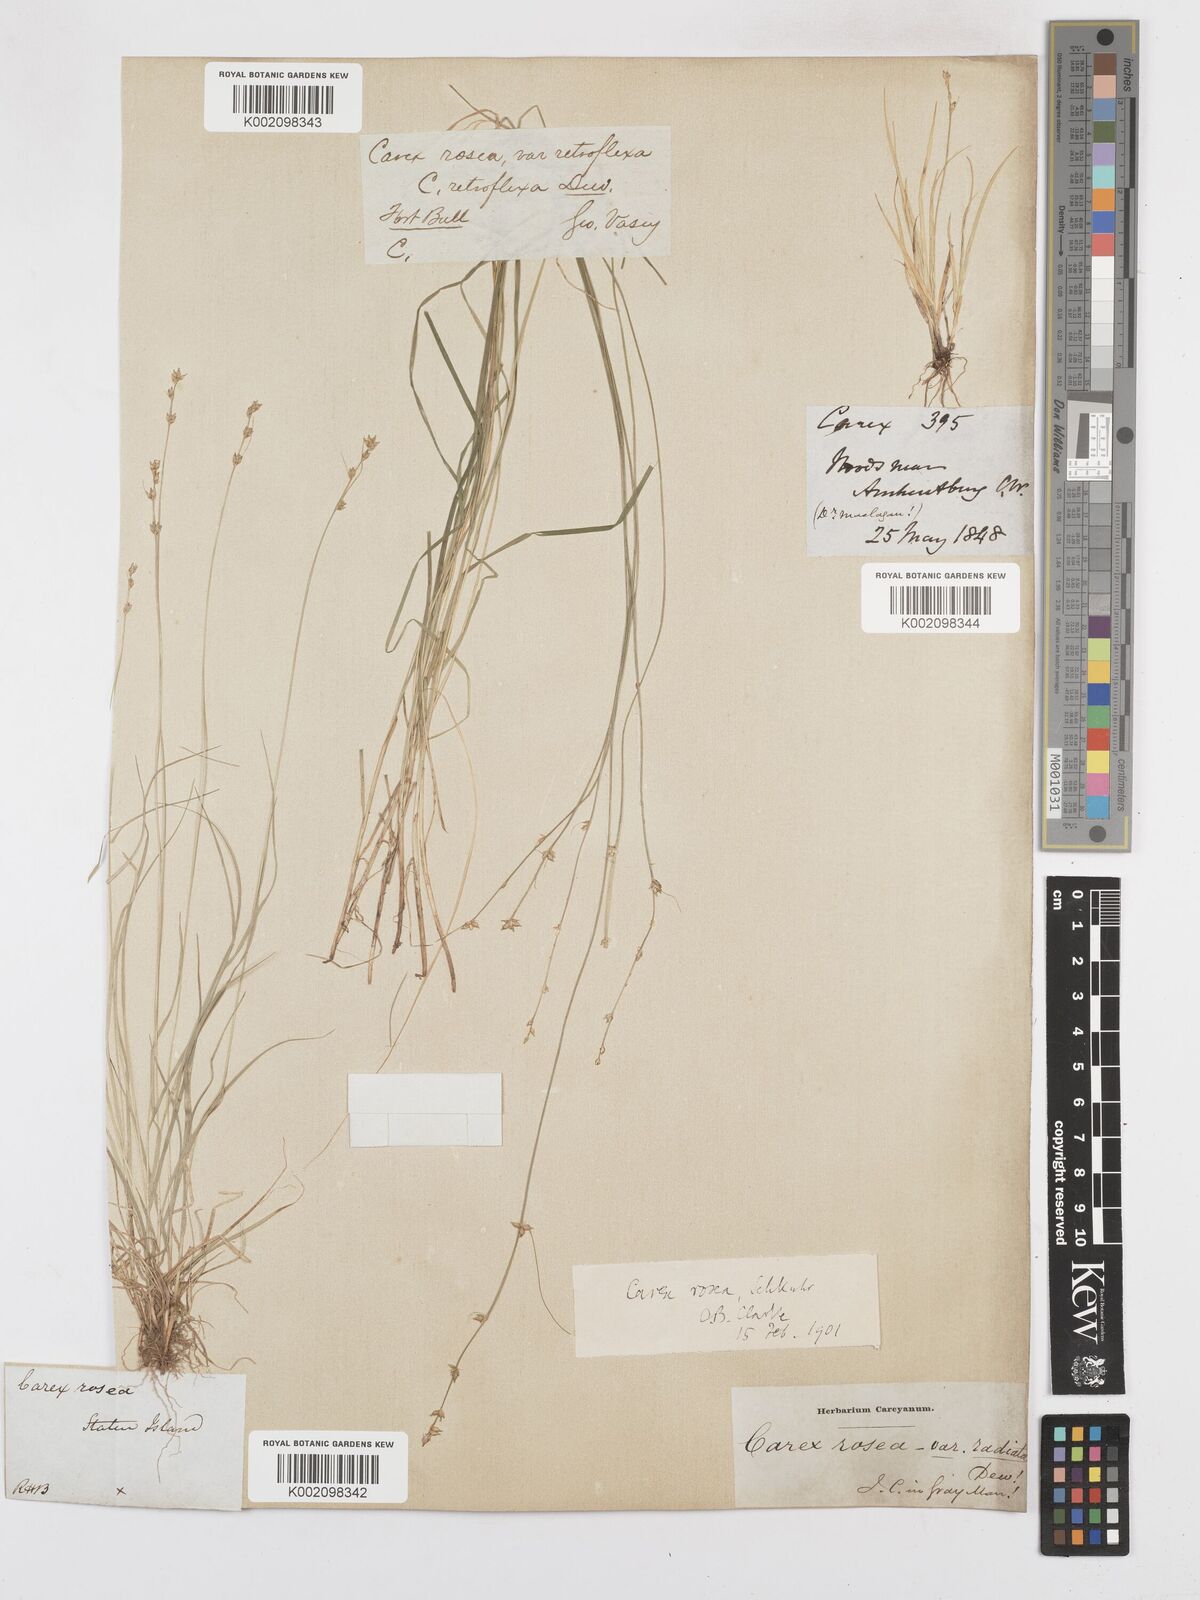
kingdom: Plantae
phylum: Tracheophyta
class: Liliopsida
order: Poales
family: Cyperaceae
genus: Carex
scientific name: Carex rosea
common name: Curly-styled wood sedge
